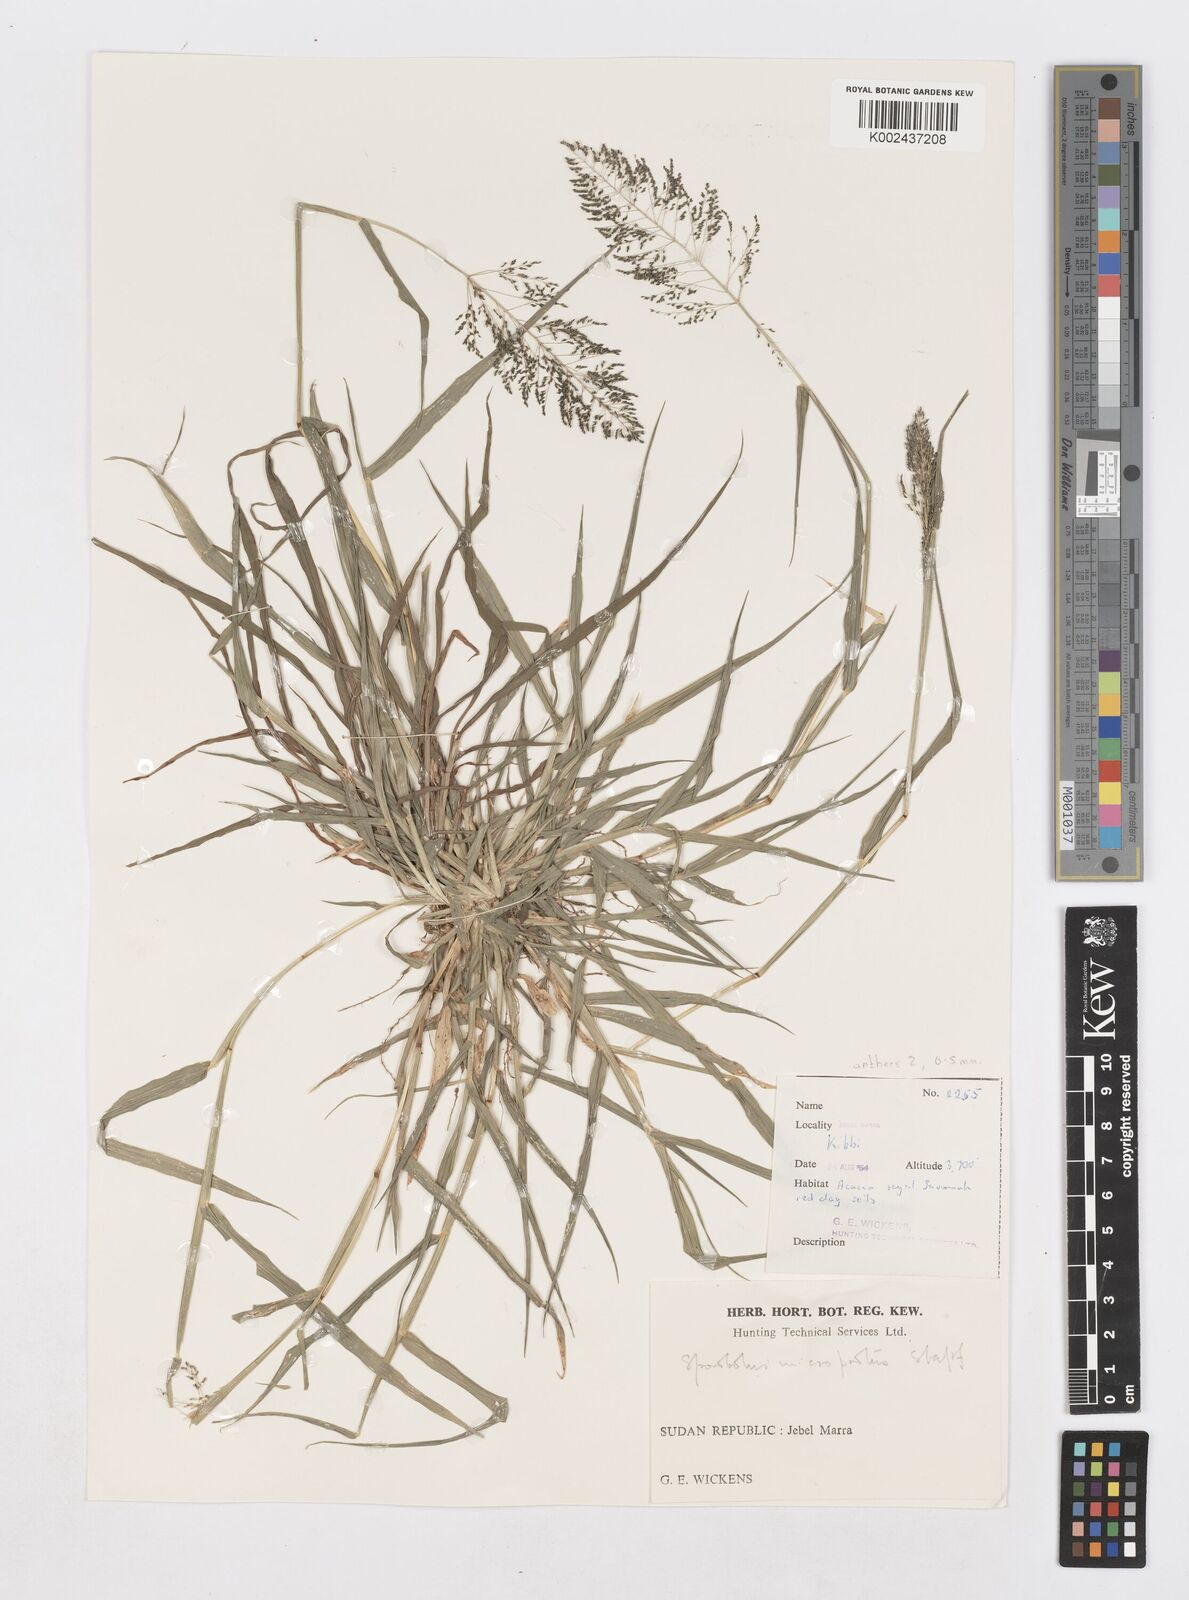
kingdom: Plantae
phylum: Tracheophyta
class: Liliopsida
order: Poales
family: Poaceae
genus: Sporobolus
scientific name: Sporobolus microprotus
